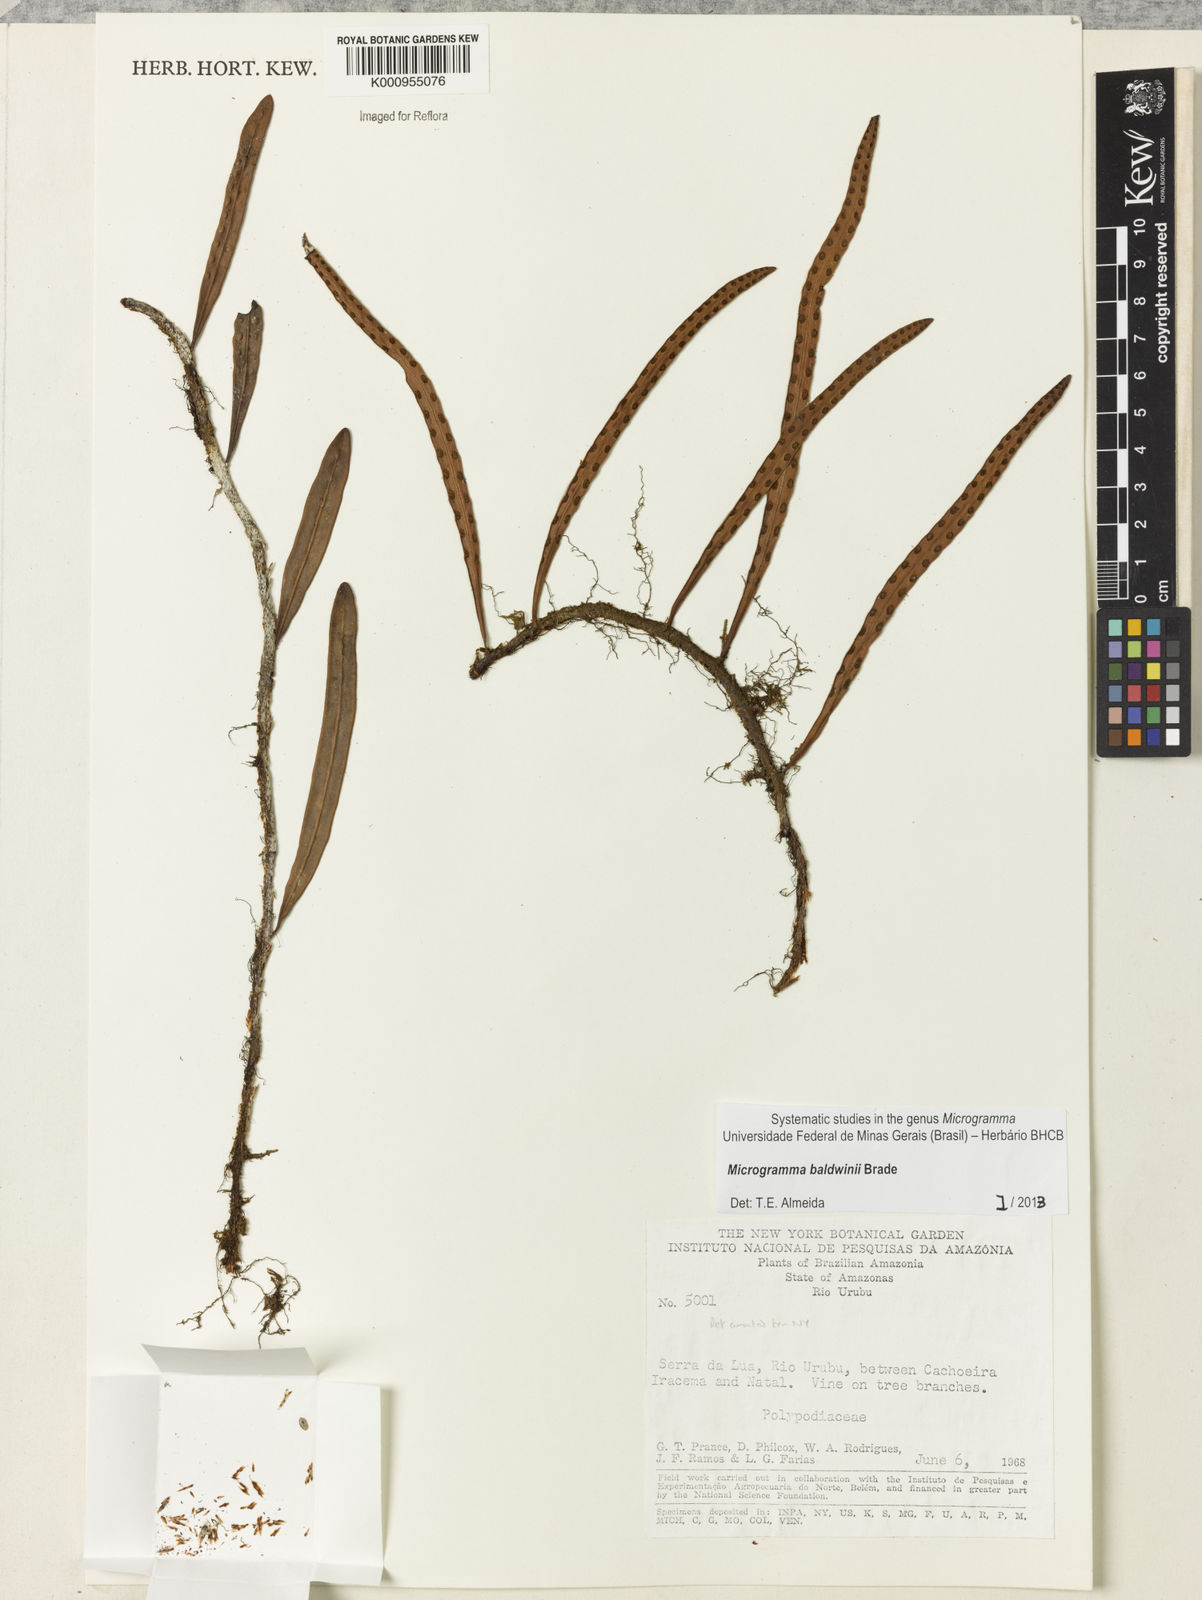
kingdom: Plantae
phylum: Tracheophyta
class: Polypodiopsida
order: Polypodiales
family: Polypodiaceae
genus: Microgramma
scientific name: Microgramma baldwinii
